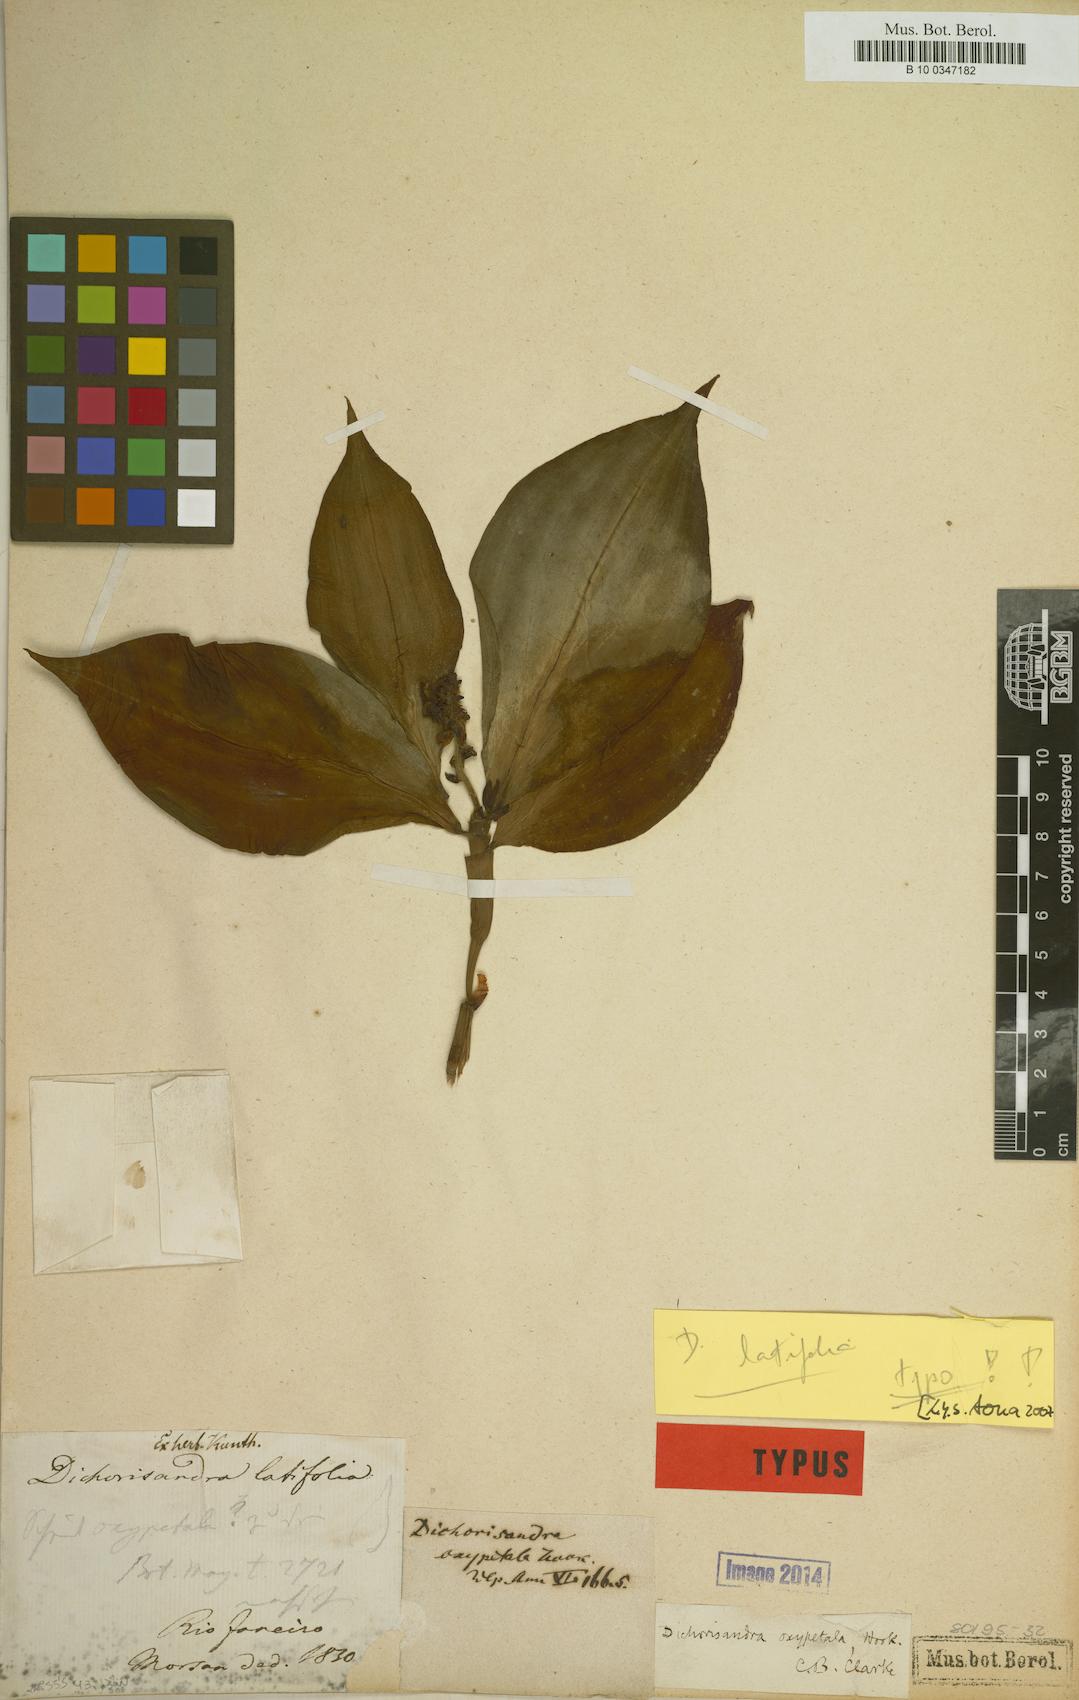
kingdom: Plantae
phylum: Tracheophyta
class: Liliopsida
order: Commelinales
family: Commelinaceae
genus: Dichorisandra
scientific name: Dichorisandra oxypetala
